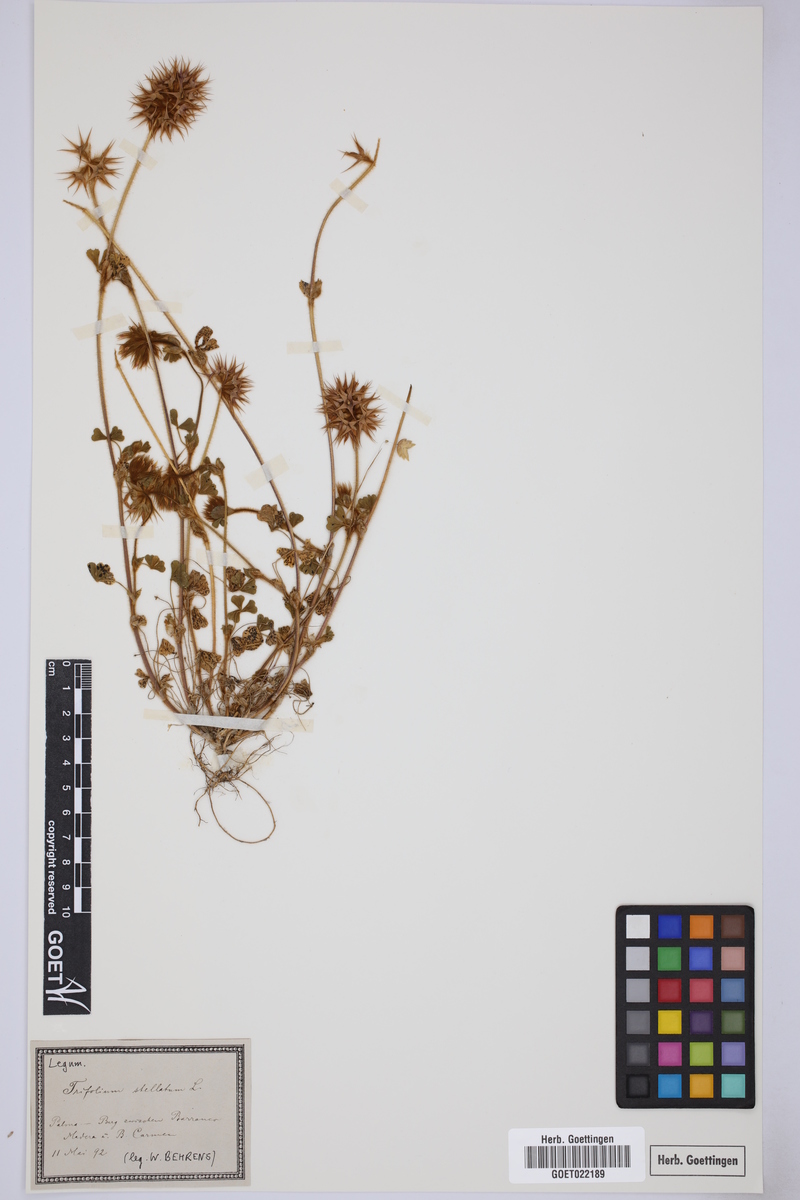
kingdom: Plantae
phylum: Tracheophyta
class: Magnoliopsida
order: Fabales
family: Fabaceae
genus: Trifolium
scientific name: Trifolium stellatum
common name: Starry clover
